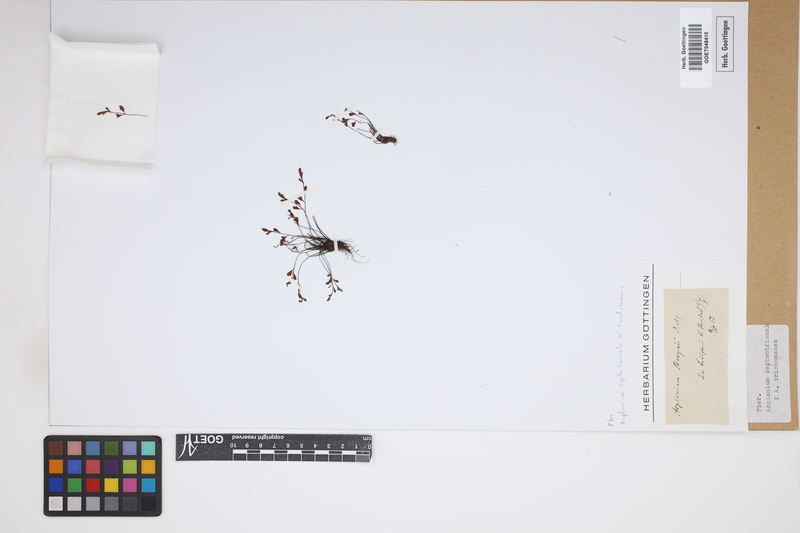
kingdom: Plantae
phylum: Tracheophyta
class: Polypodiopsida
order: Polypodiales
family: Aspleniaceae
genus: Asplenium
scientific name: Asplenium
